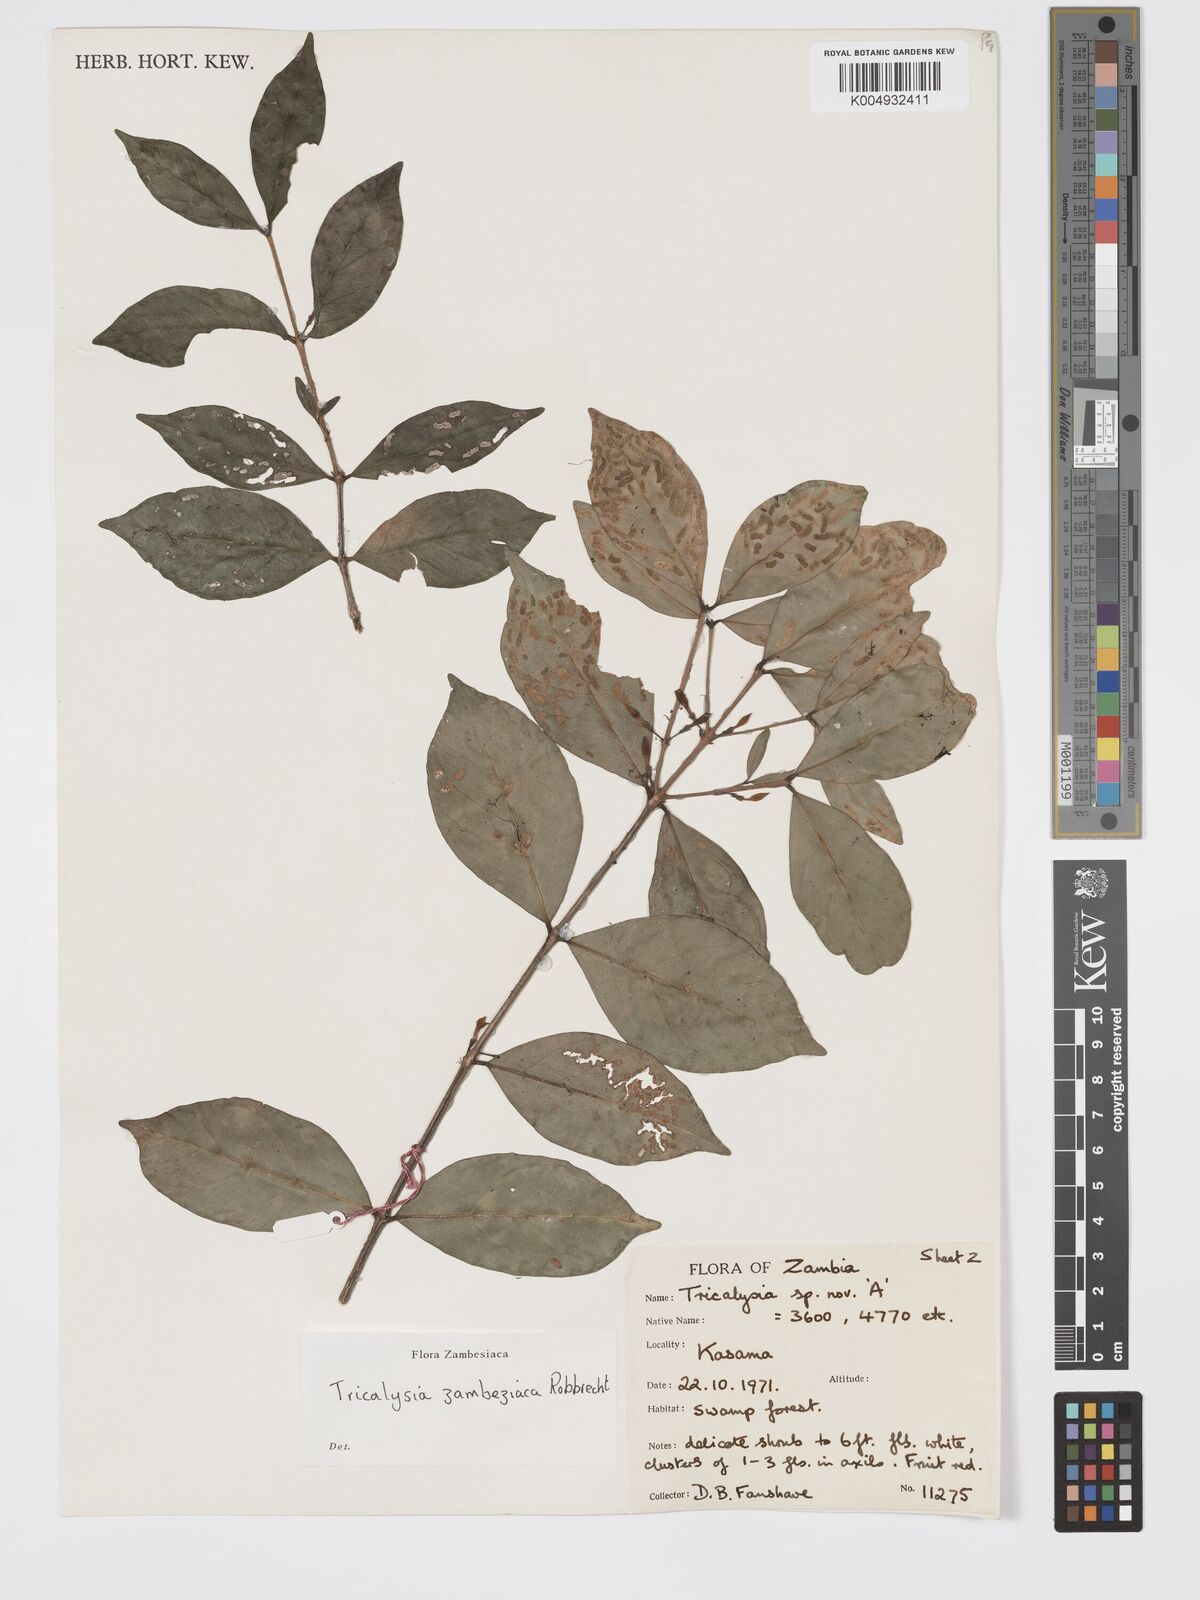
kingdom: Plantae
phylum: Tracheophyta
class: Magnoliopsida
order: Gentianales
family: Rubiaceae
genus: Tricalysia
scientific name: Tricalysia
